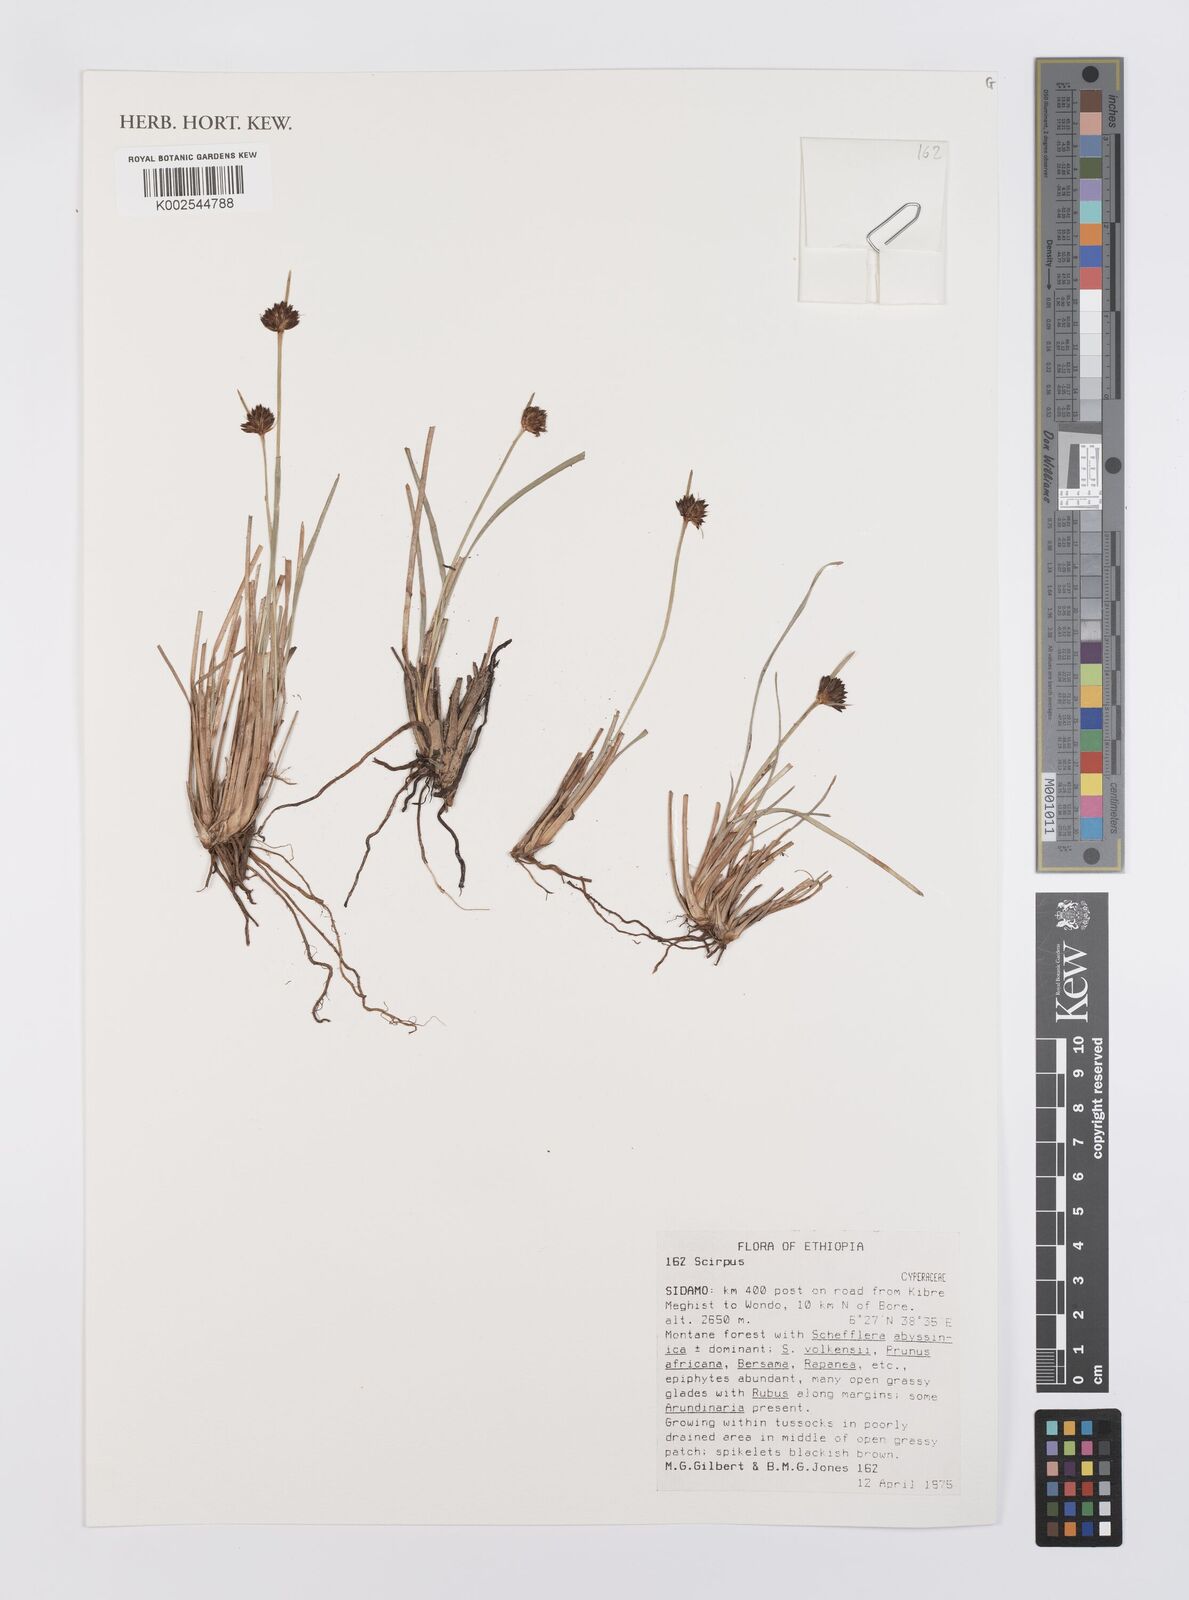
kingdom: Plantae
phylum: Tracheophyta
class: Liliopsida
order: Poales
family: Cyperaceae
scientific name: Cyperaceae
